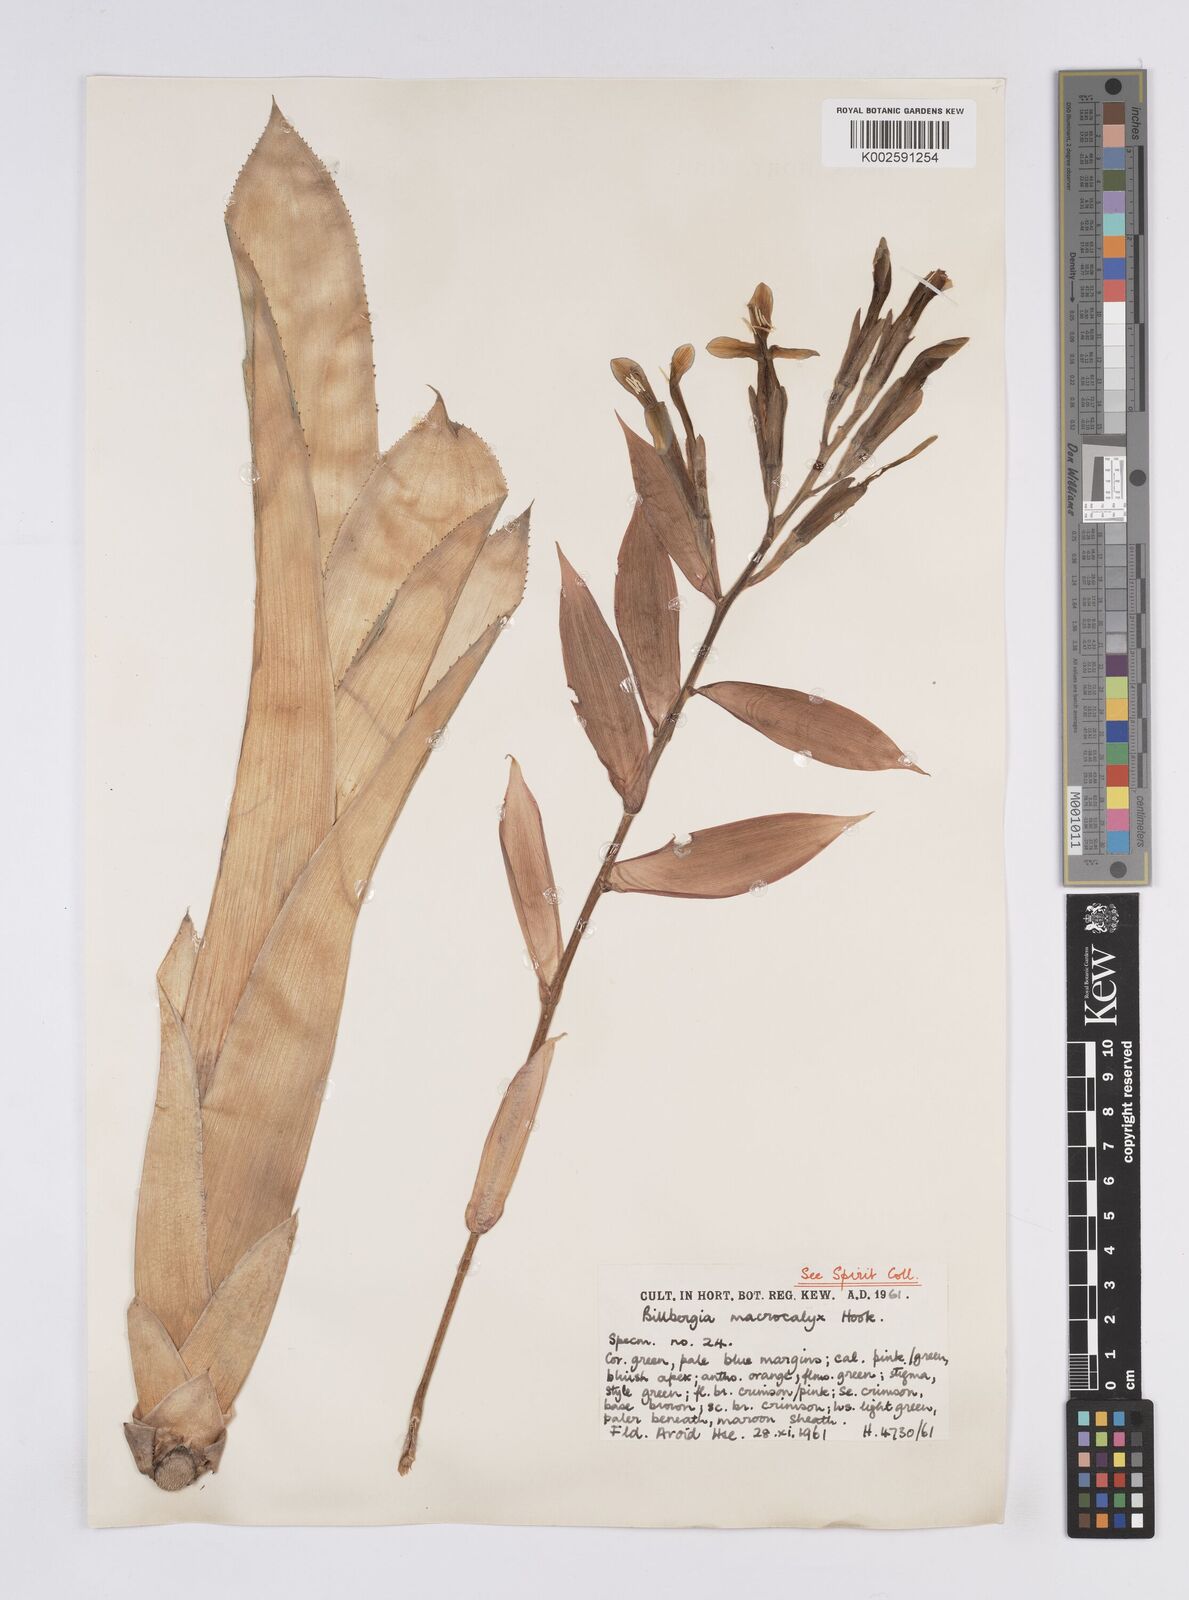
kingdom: Plantae
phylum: Tracheophyta
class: Liliopsida
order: Poales
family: Bromeliaceae
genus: Billbergia
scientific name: Billbergia macrocalyx
